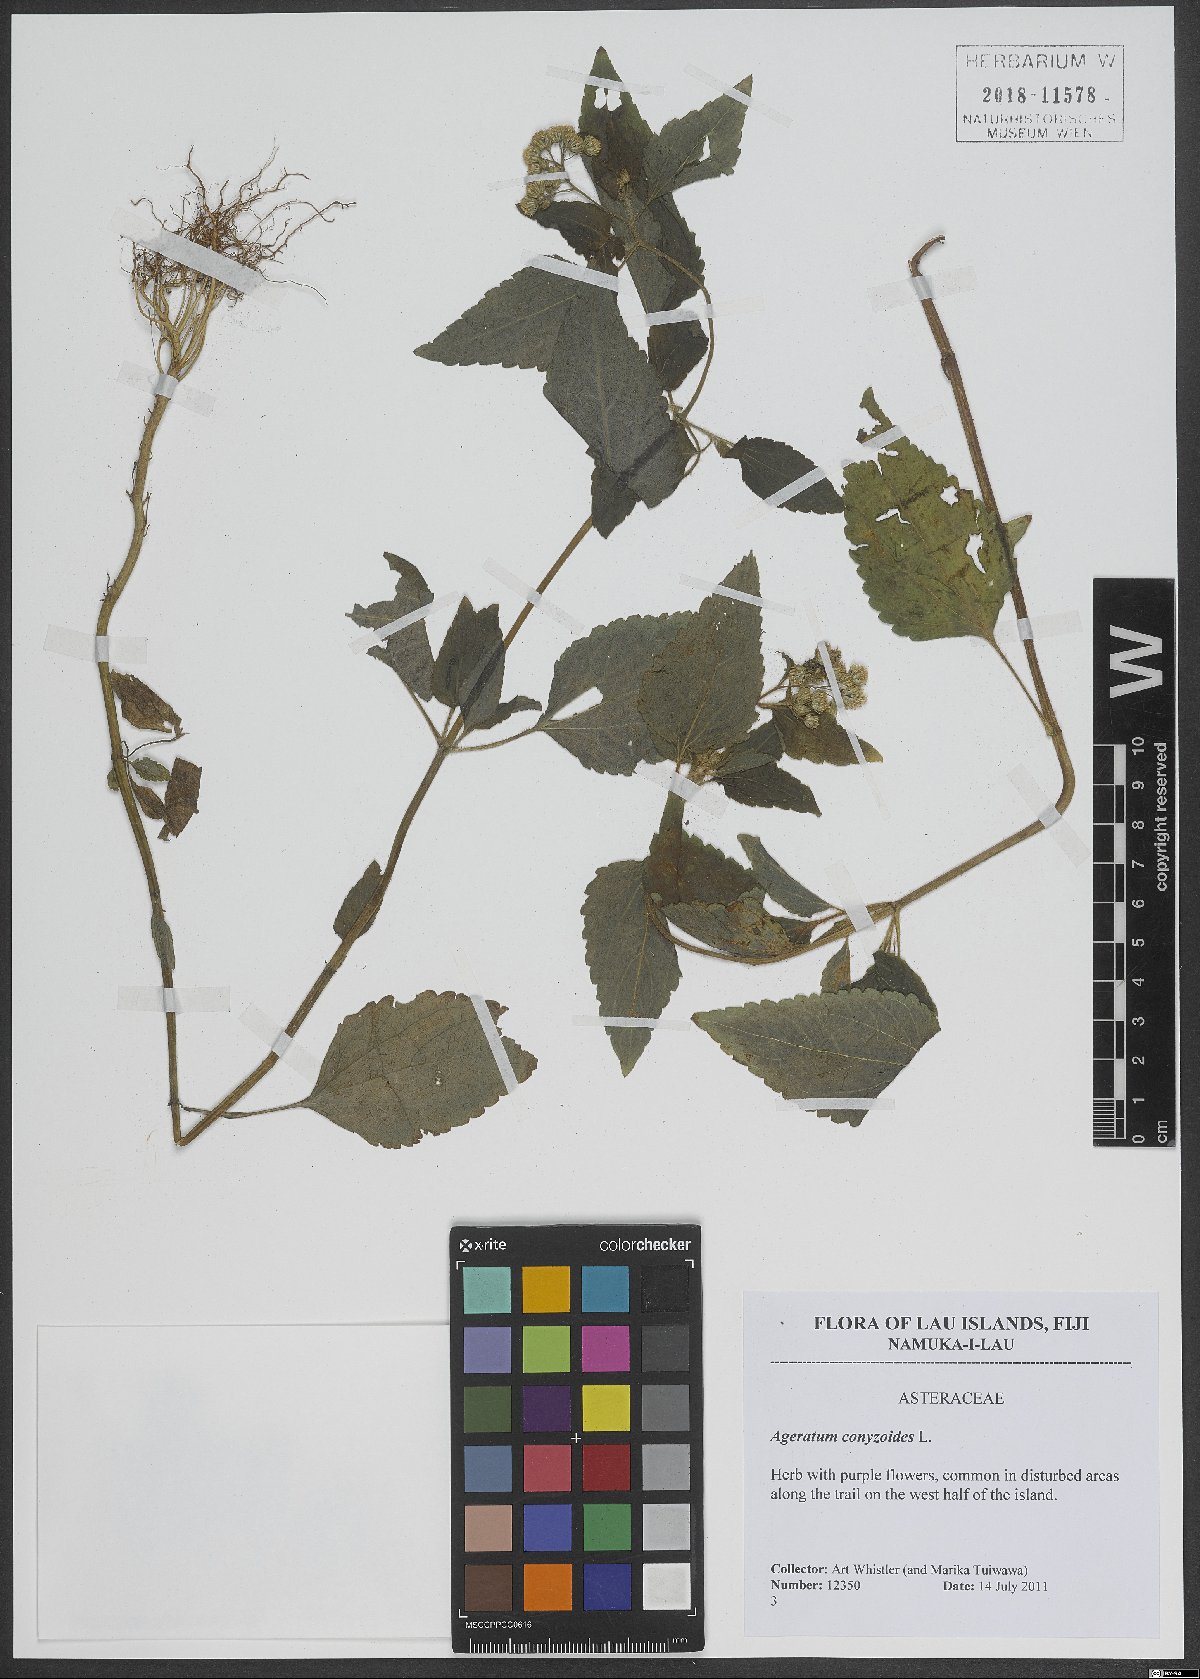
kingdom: Plantae
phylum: Tracheophyta
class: Magnoliopsida
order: Asterales
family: Asteraceae
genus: Ageratum
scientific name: Ageratum conyzoides
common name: Tropical whiteweed
